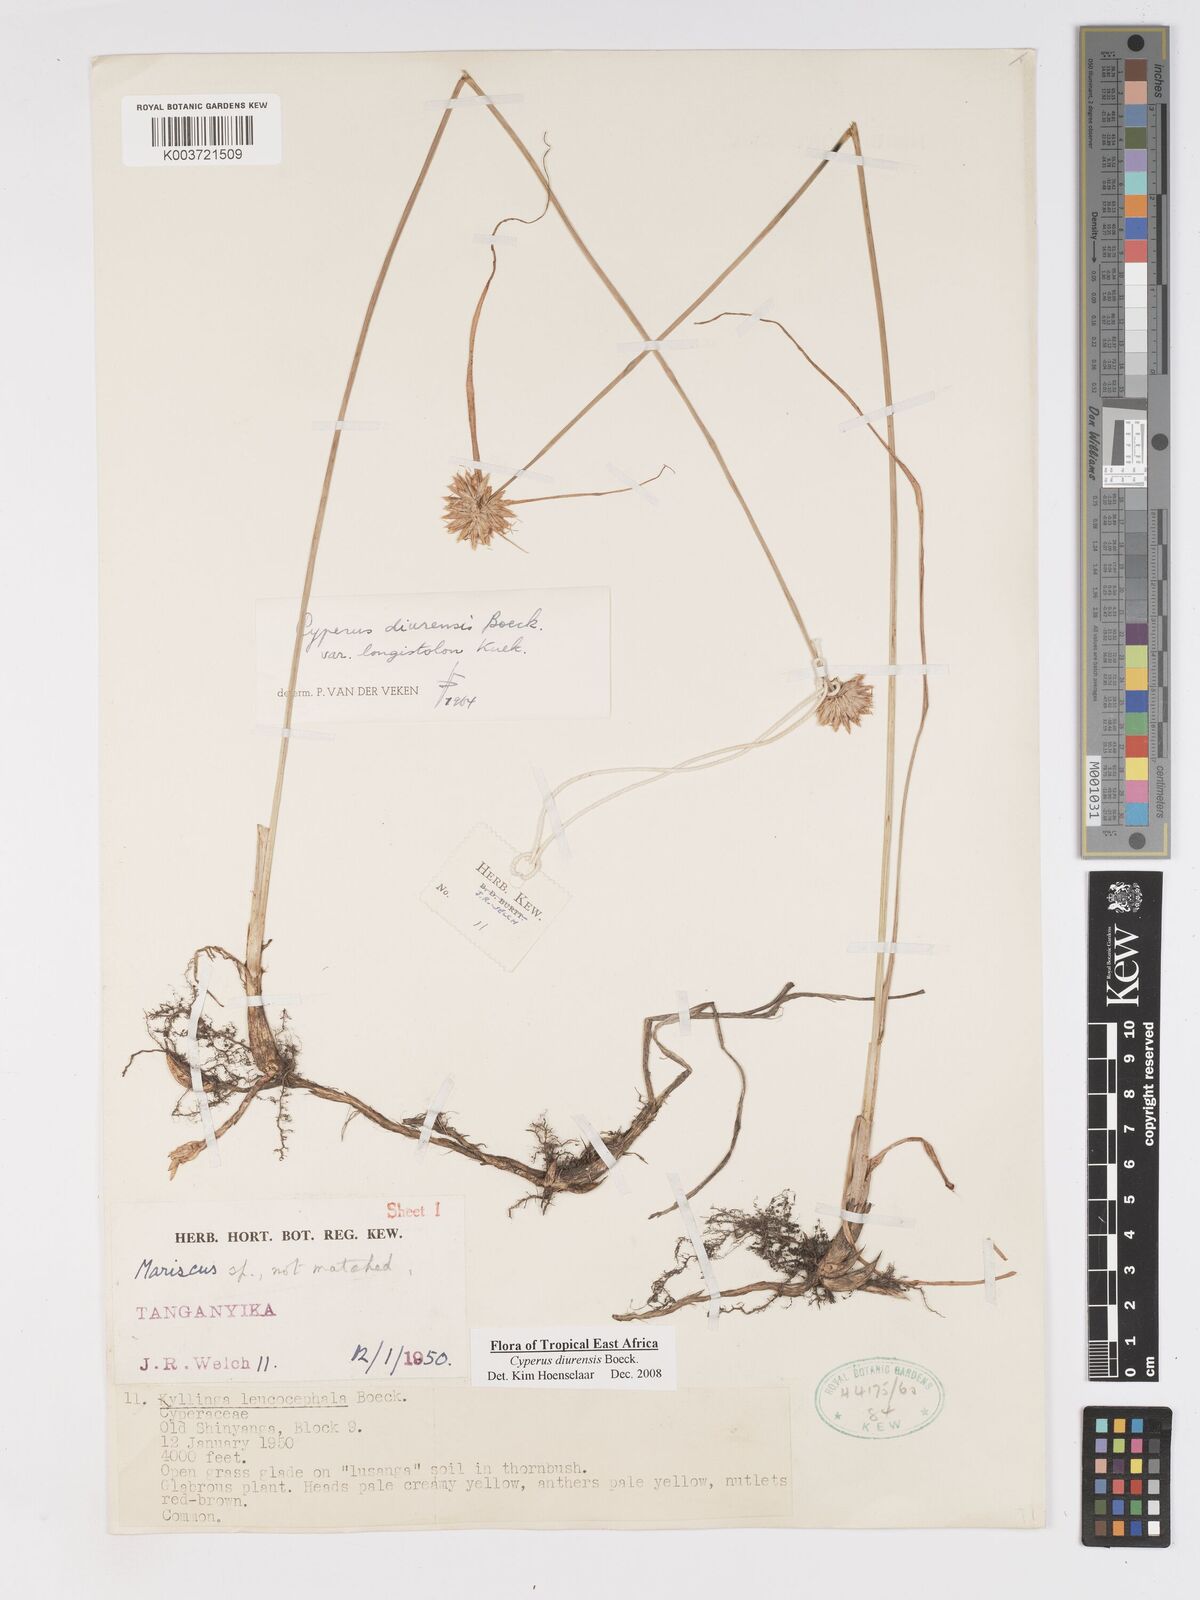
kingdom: Plantae
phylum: Tracheophyta
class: Liliopsida
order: Poales
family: Cyperaceae
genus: Cyperus
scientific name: Cyperus diurensis
